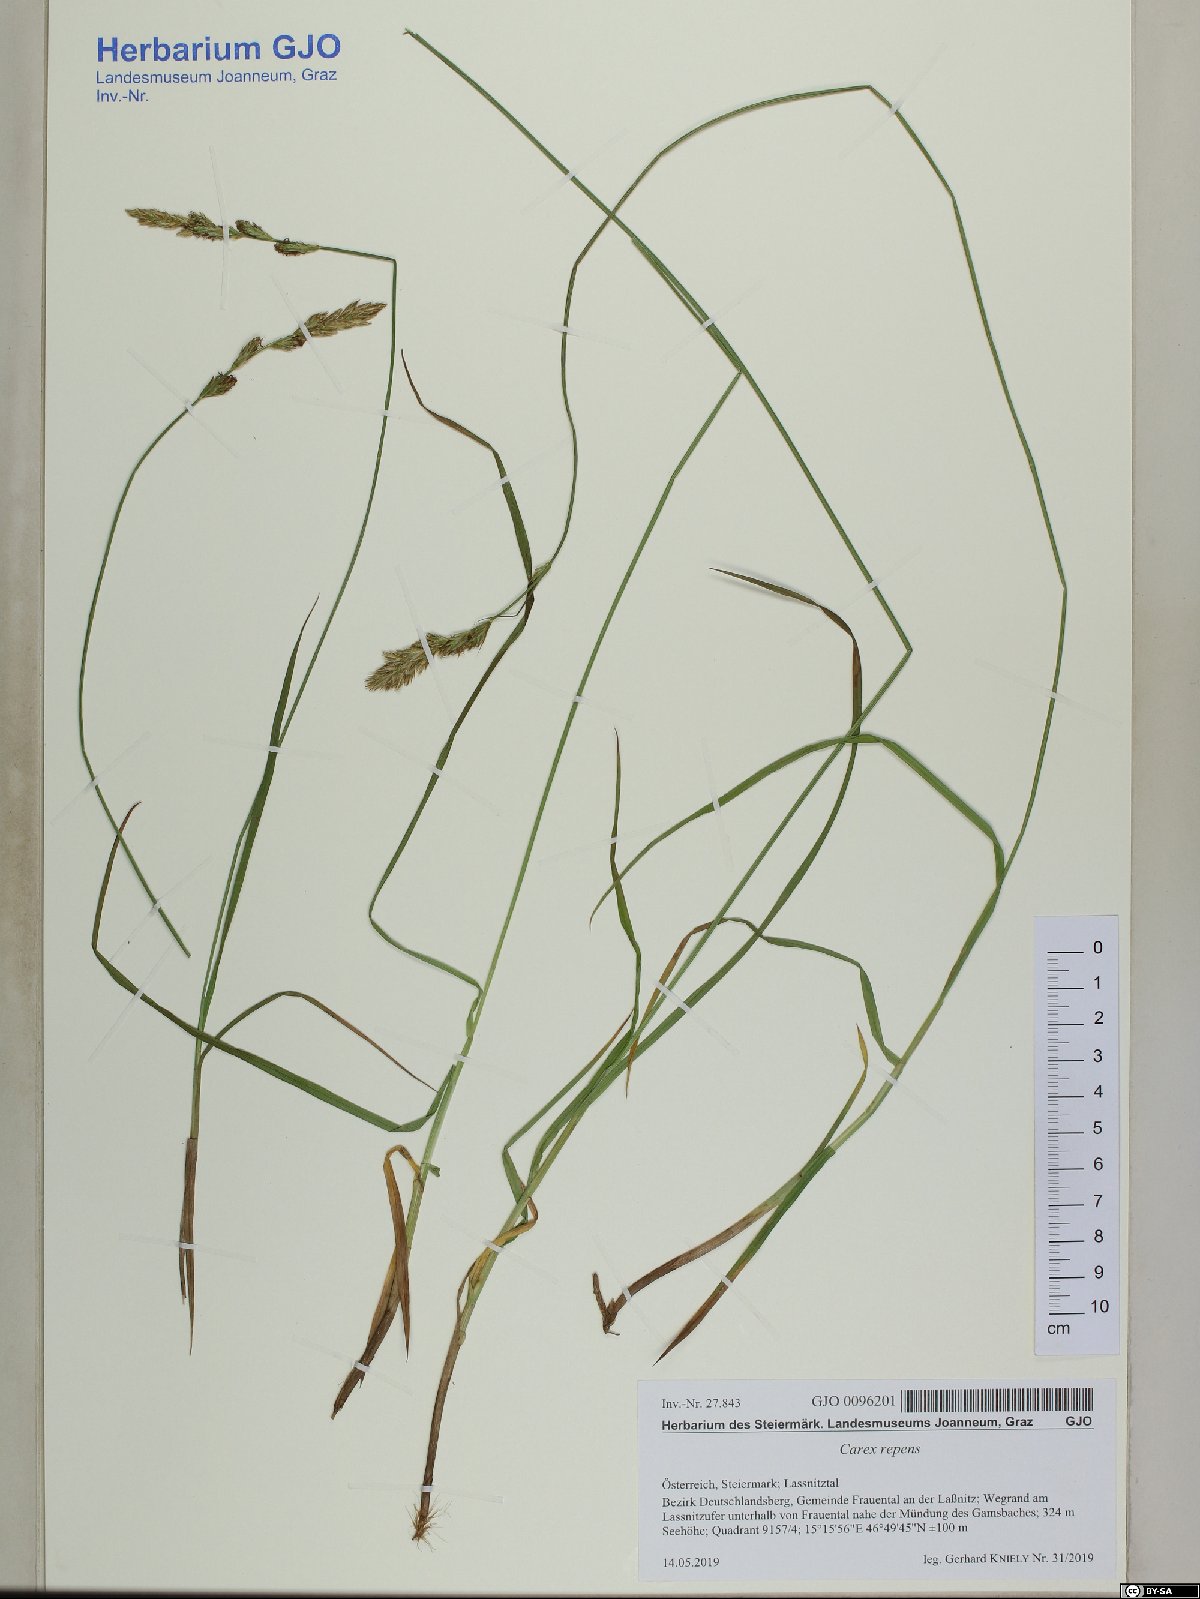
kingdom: Plantae
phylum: Tracheophyta
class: Liliopsida
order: Poales
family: Cyperaceae
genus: Carex
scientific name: Carex repens
